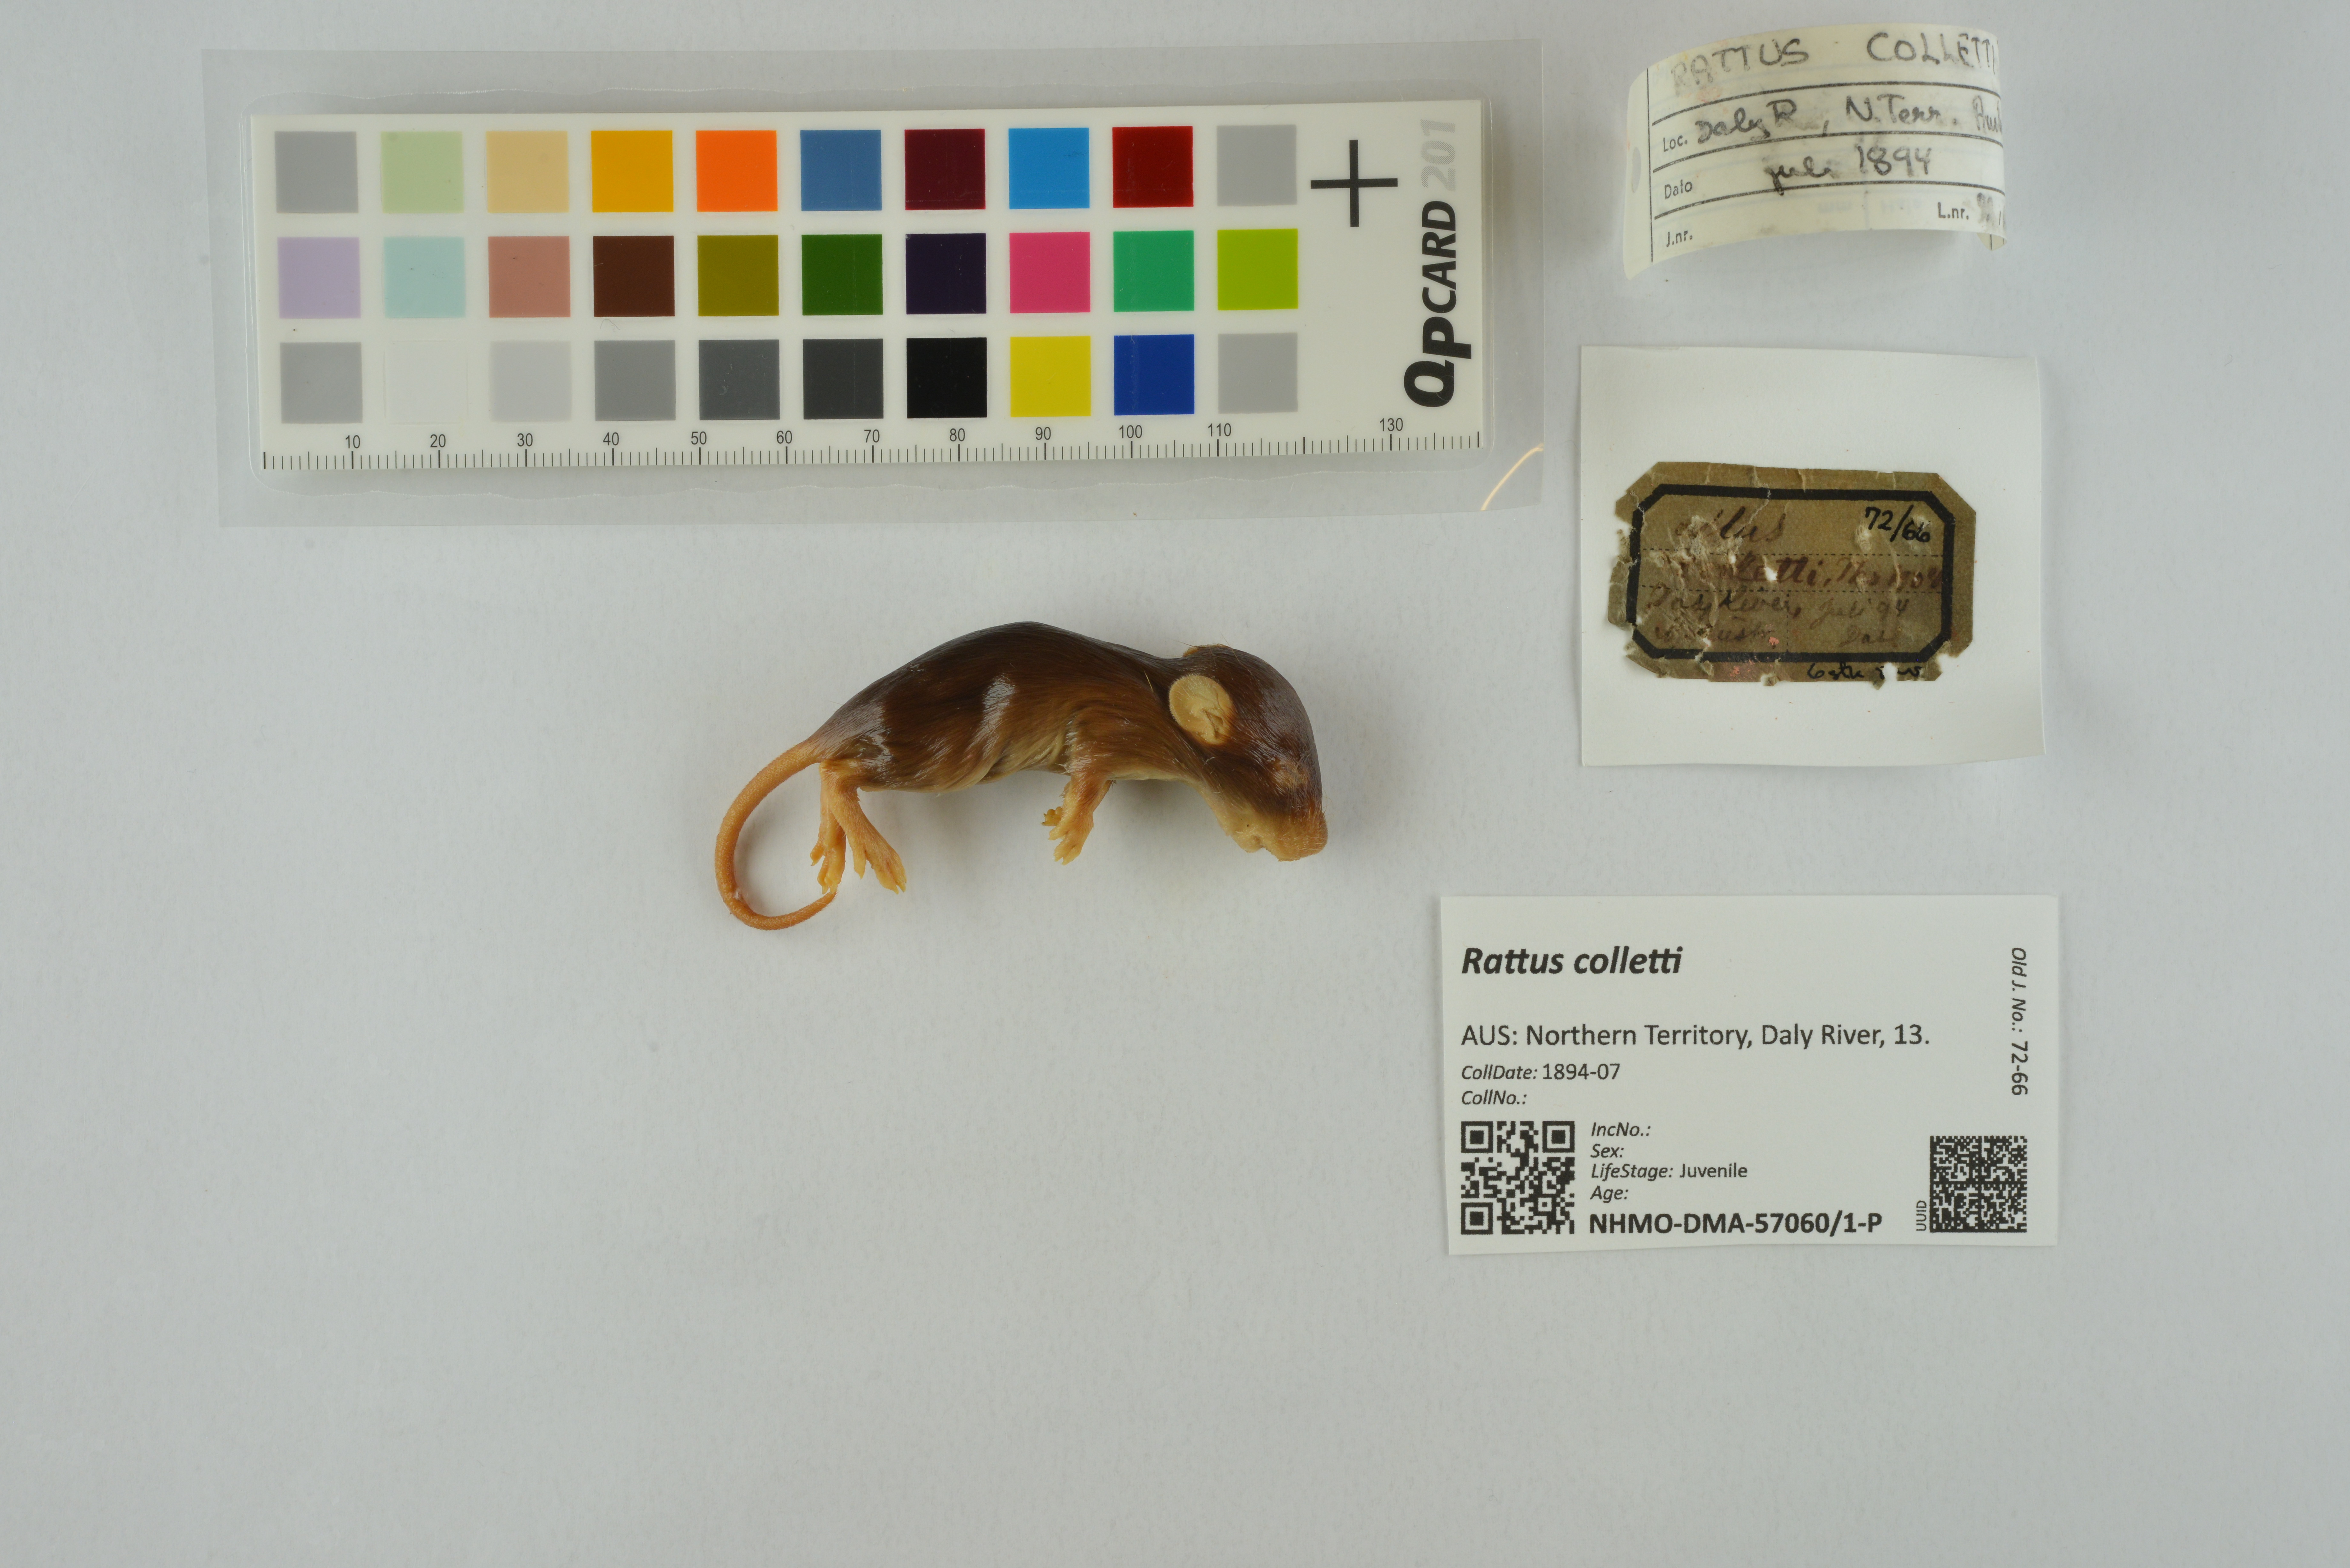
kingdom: Animalia
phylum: Chordata
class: Mammalia
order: Rodentia
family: Muridae
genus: Rattus
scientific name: Rattus colletti
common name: Australian dusky rat
